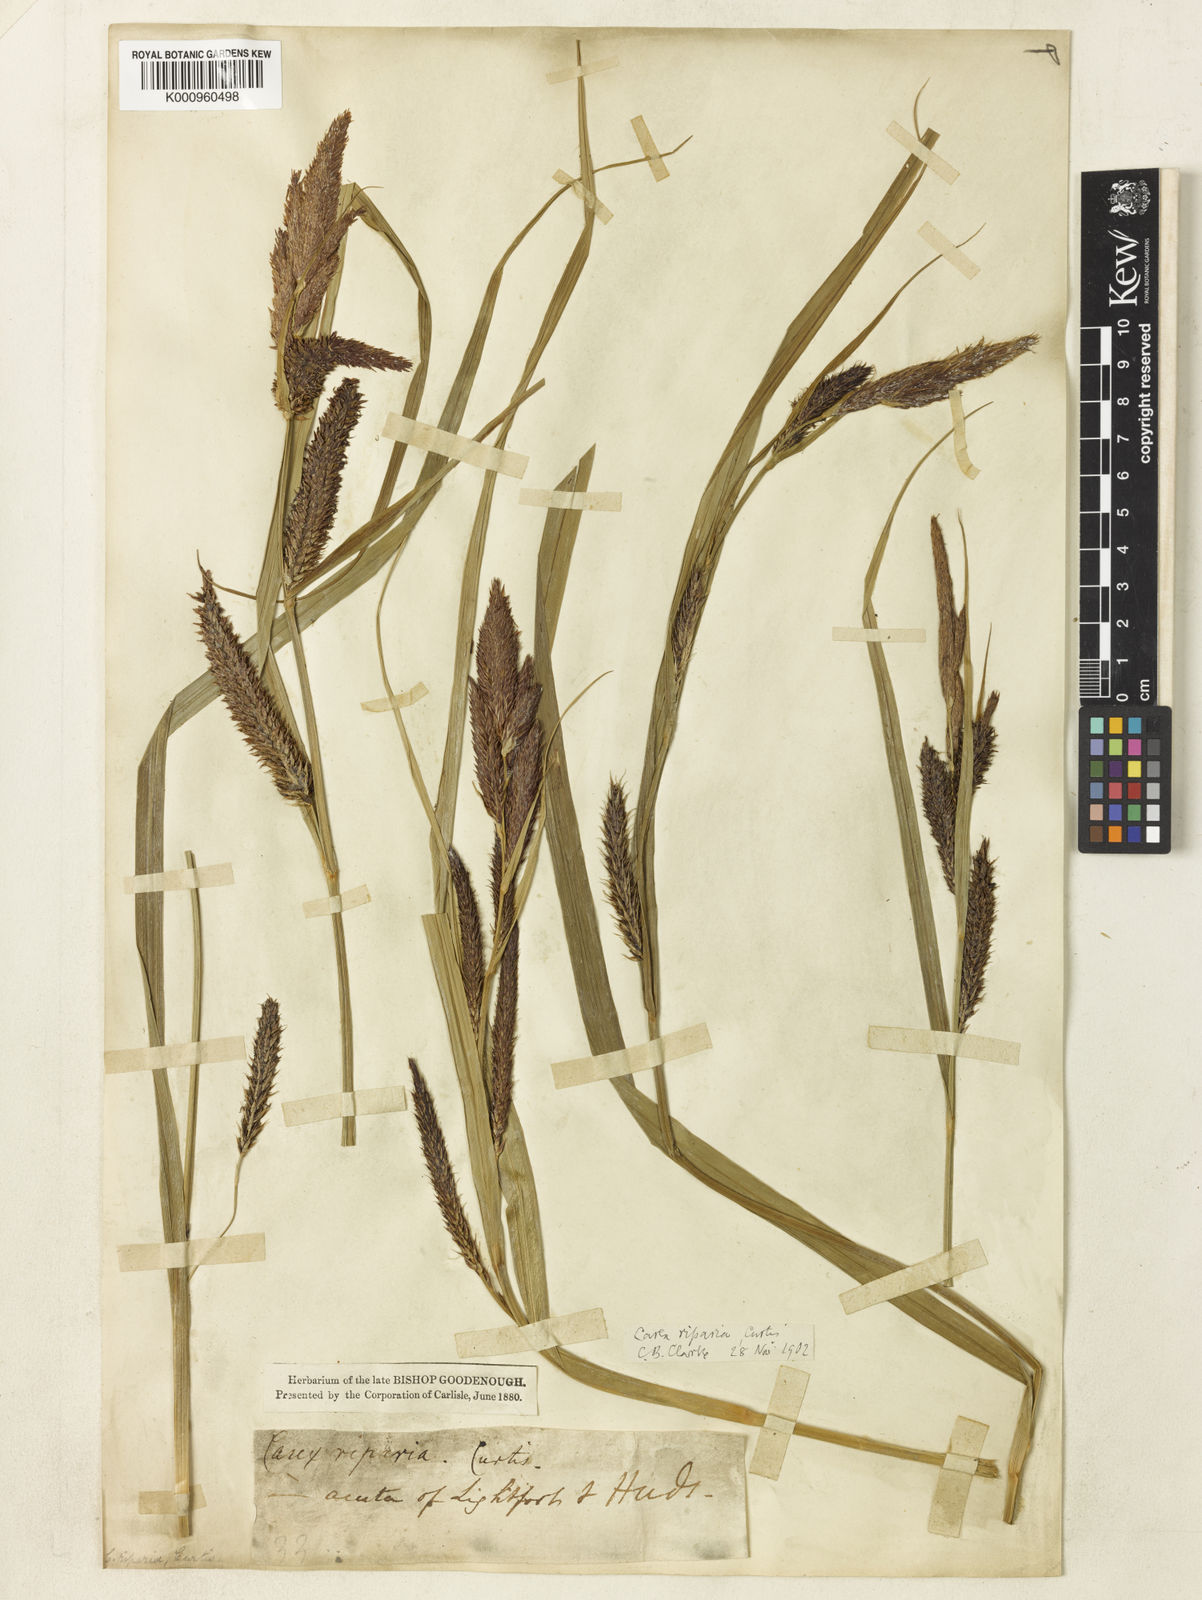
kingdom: Plantae
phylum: Tracheophyta
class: Liliopsida
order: Poales
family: Cyperaceae
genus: Carex
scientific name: Carex riparia
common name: Greater pond-sedge
